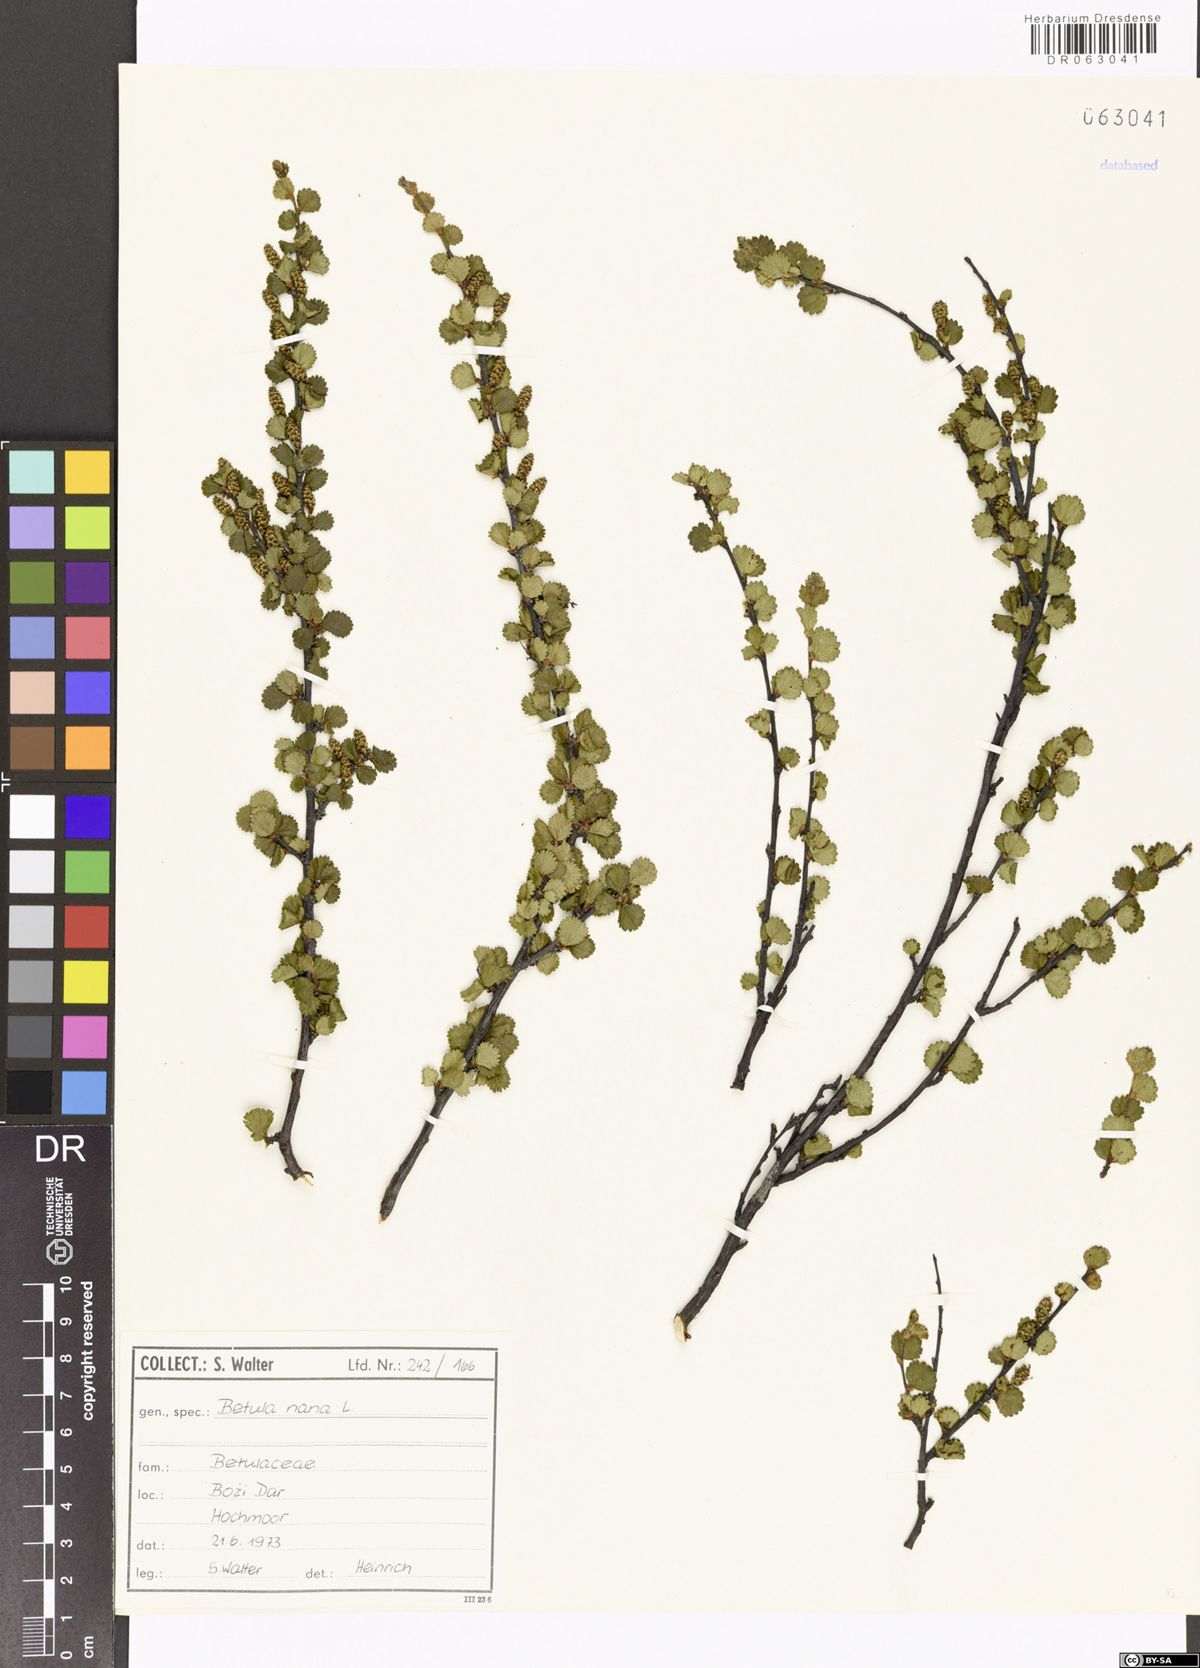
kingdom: Plantae
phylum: Tracheophyta
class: Magnoliopsida
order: Fagales
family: Betulaceae
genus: Betula
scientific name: Betula nana
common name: Arctic dwarf birch
